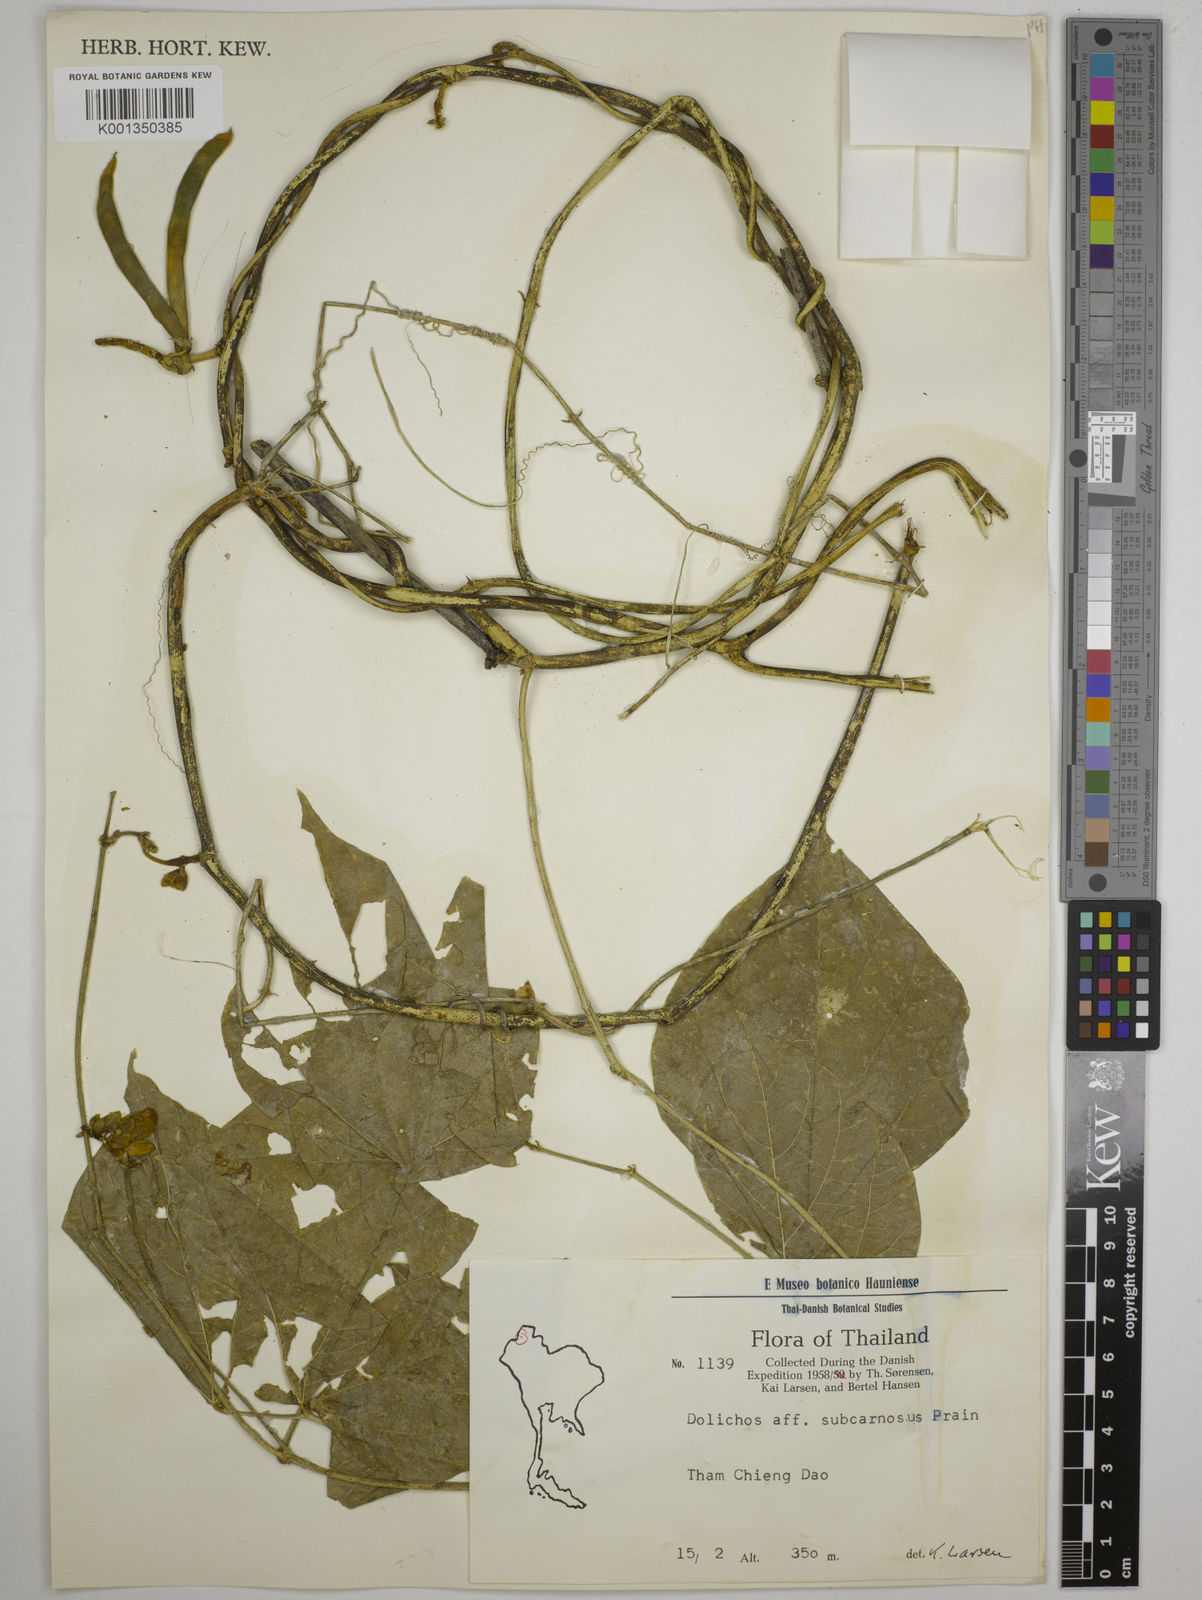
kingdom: Plantae
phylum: Tracheophyta
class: Magnoliopsida
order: Fabales
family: Fabaceae
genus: Wajira
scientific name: Wajira grahamiana
